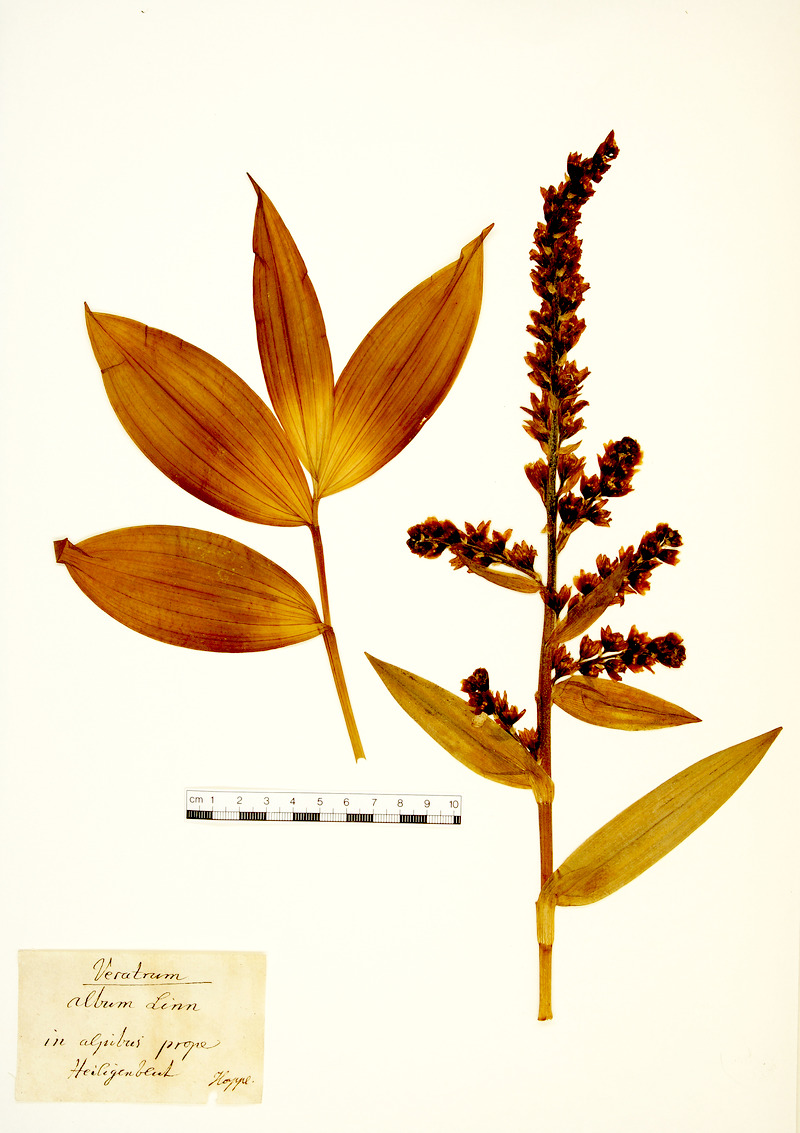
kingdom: Plantae
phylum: Tracheophyta
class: Liliopsida
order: Liliales
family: Melanthiaceae
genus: Veratrum
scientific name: Veratrum album
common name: White veratrum
